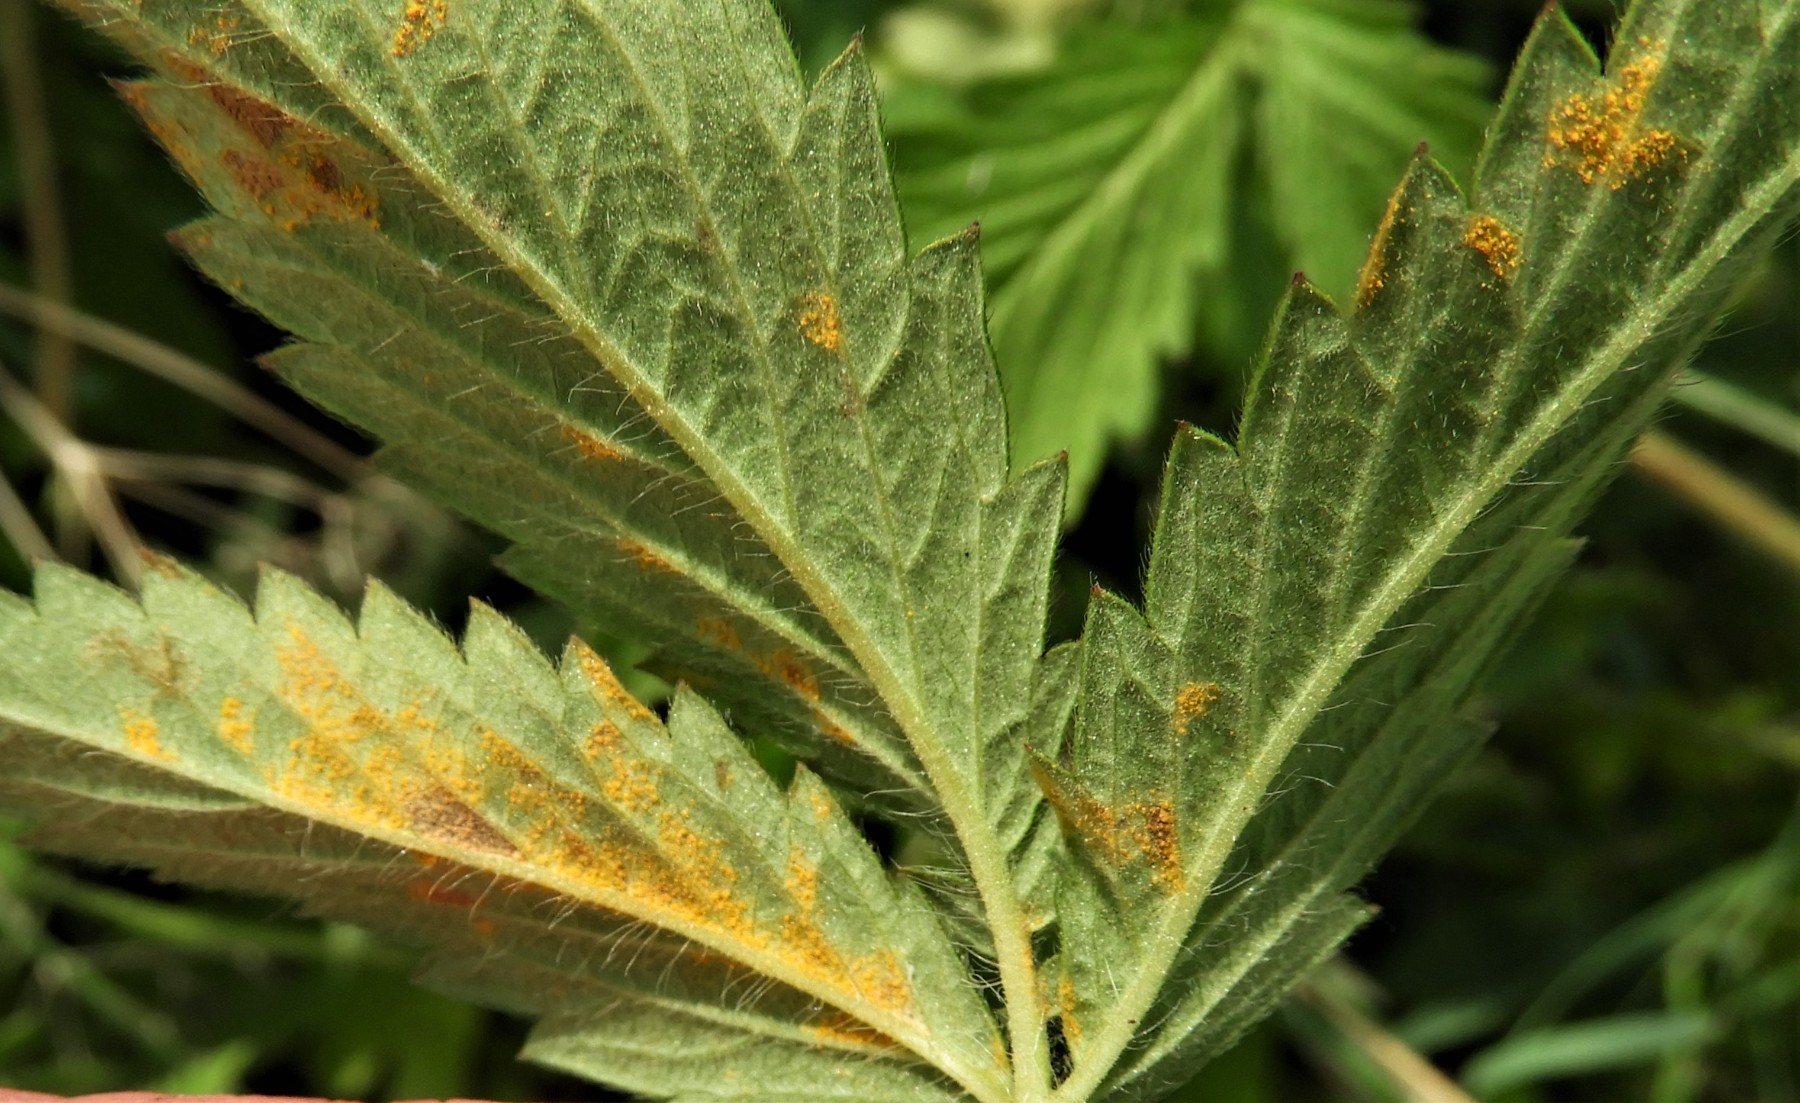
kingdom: Fungi
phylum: Basidiomycota
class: Pucciniomycetes
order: Pucciniales
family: Cronartiaceae
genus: Quasipucciniastrum
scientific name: Quasipucciniastrum ochraceum
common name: agermåne-nålerust
